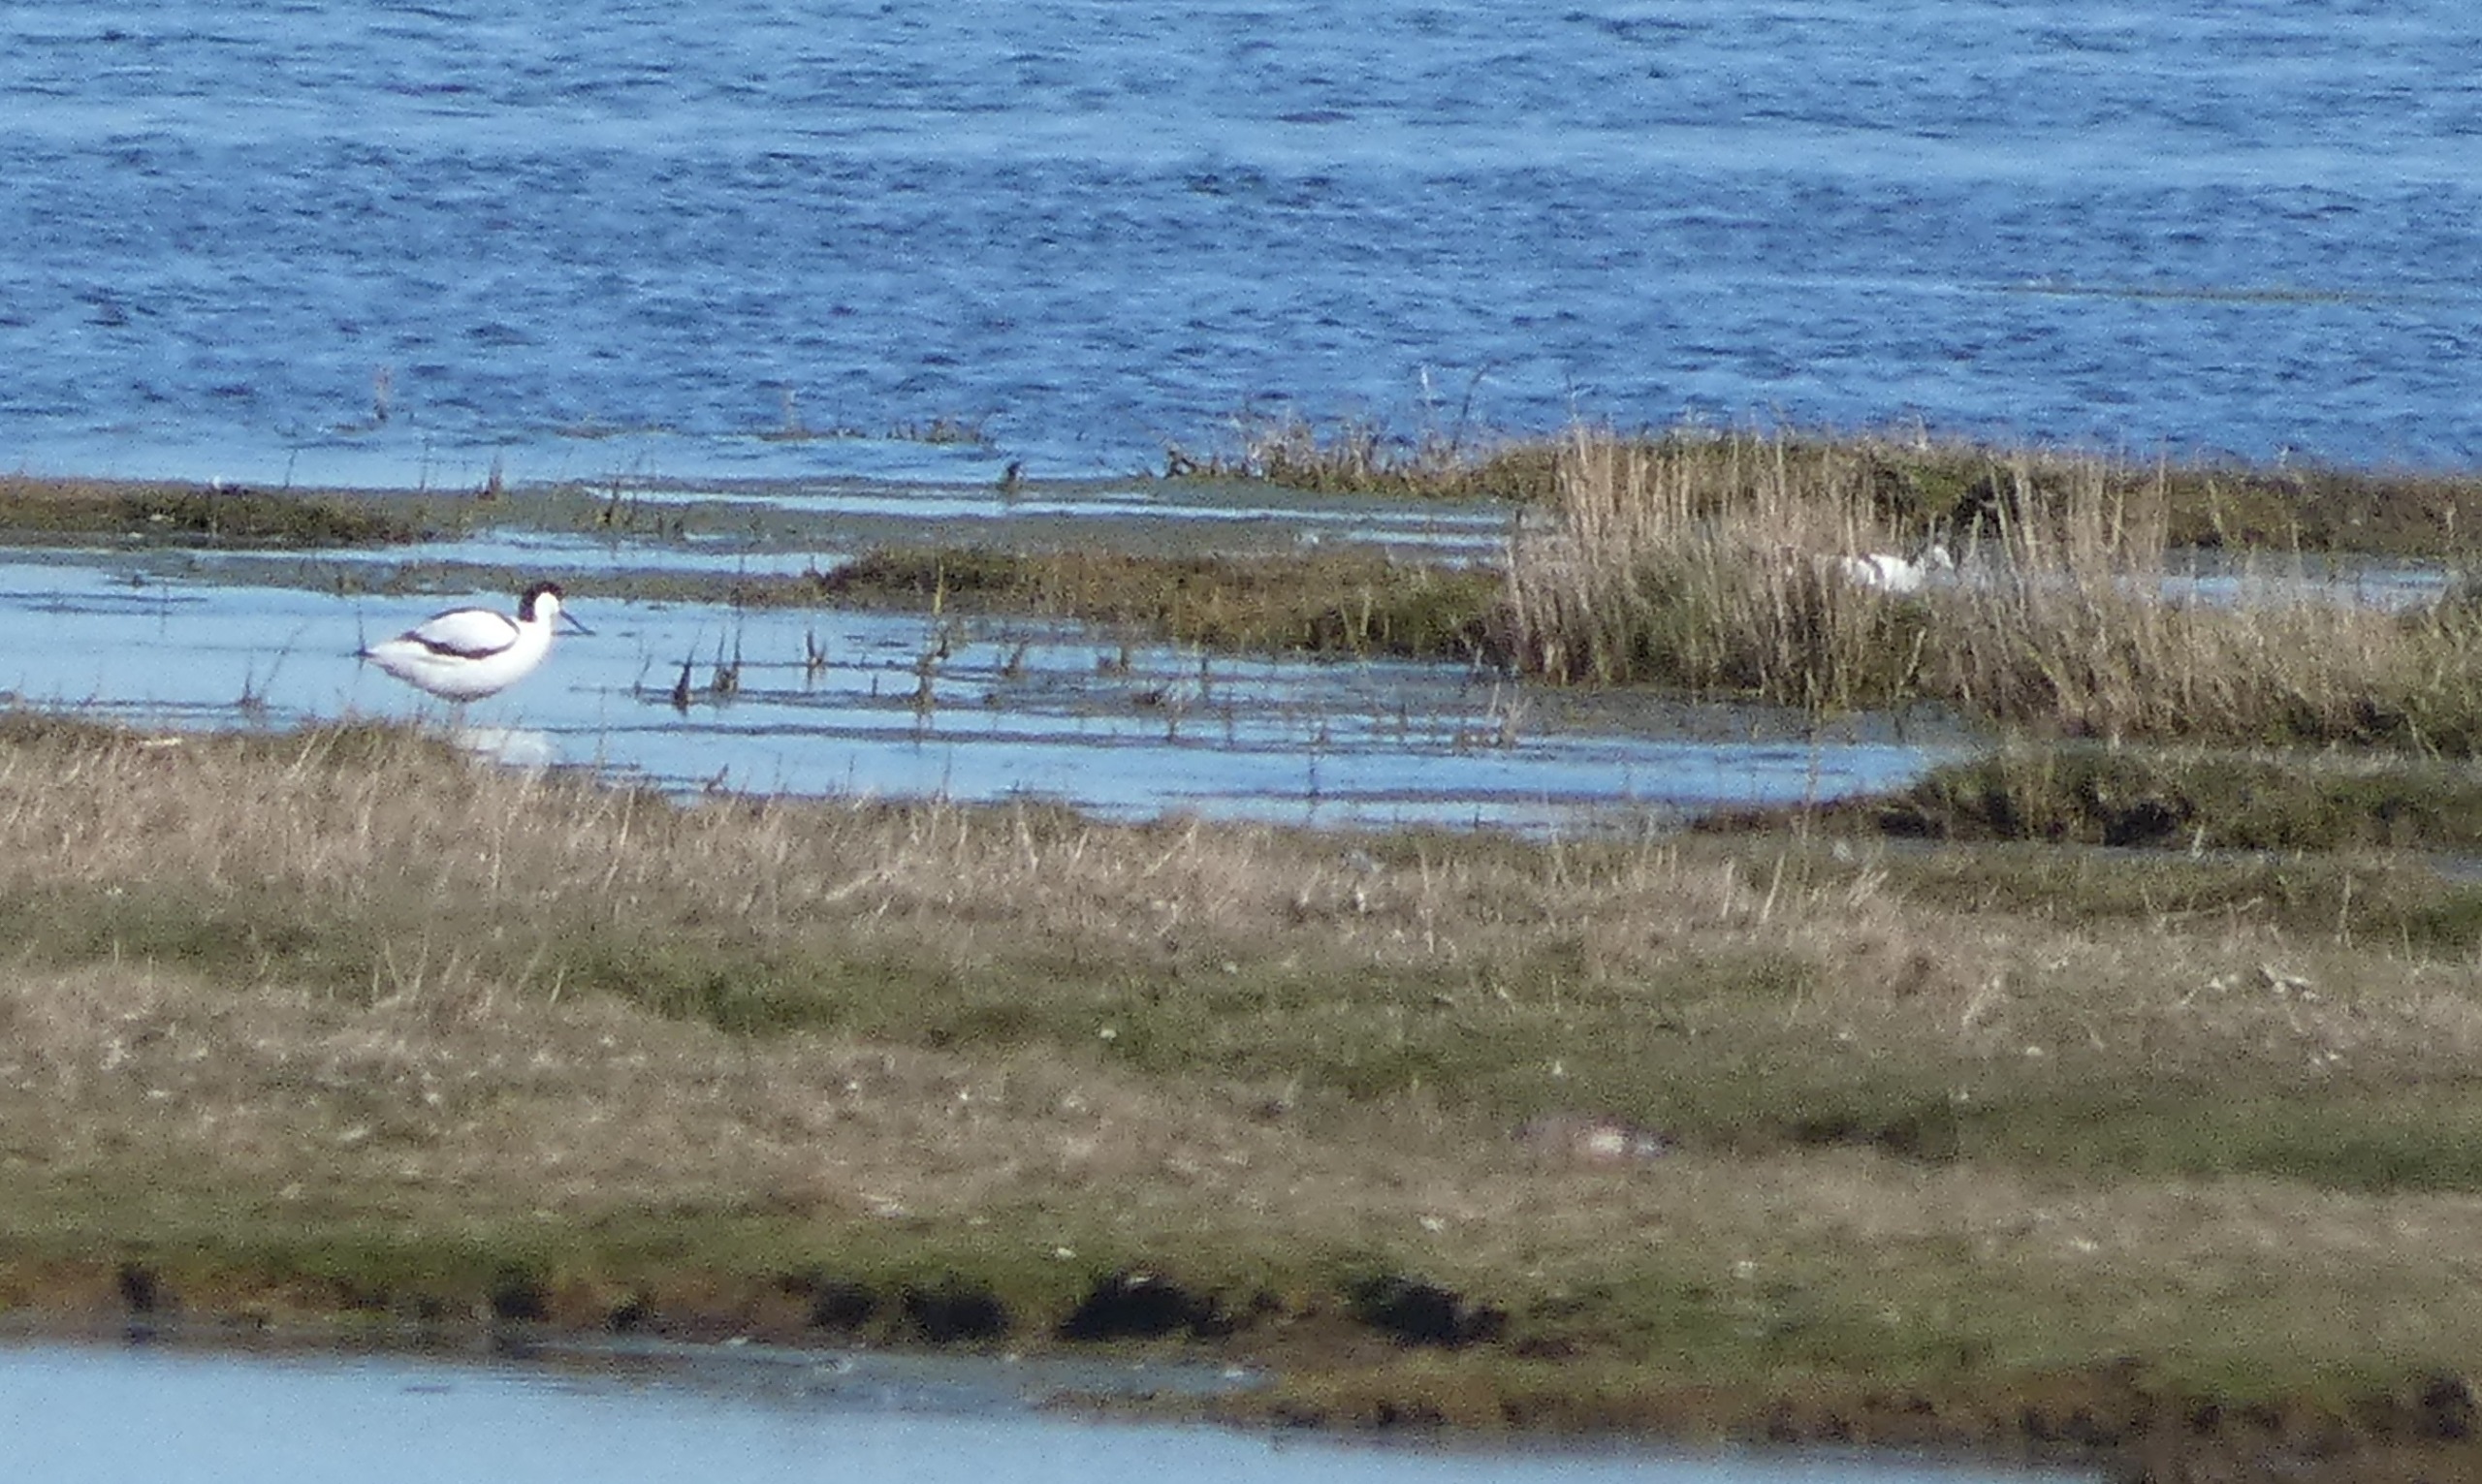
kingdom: Animalia
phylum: Chordata
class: Aves
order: Charadriiformes
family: Recurvirostridae
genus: Recurvirostra
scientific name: Recurvirostra avosetta
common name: Klyde
